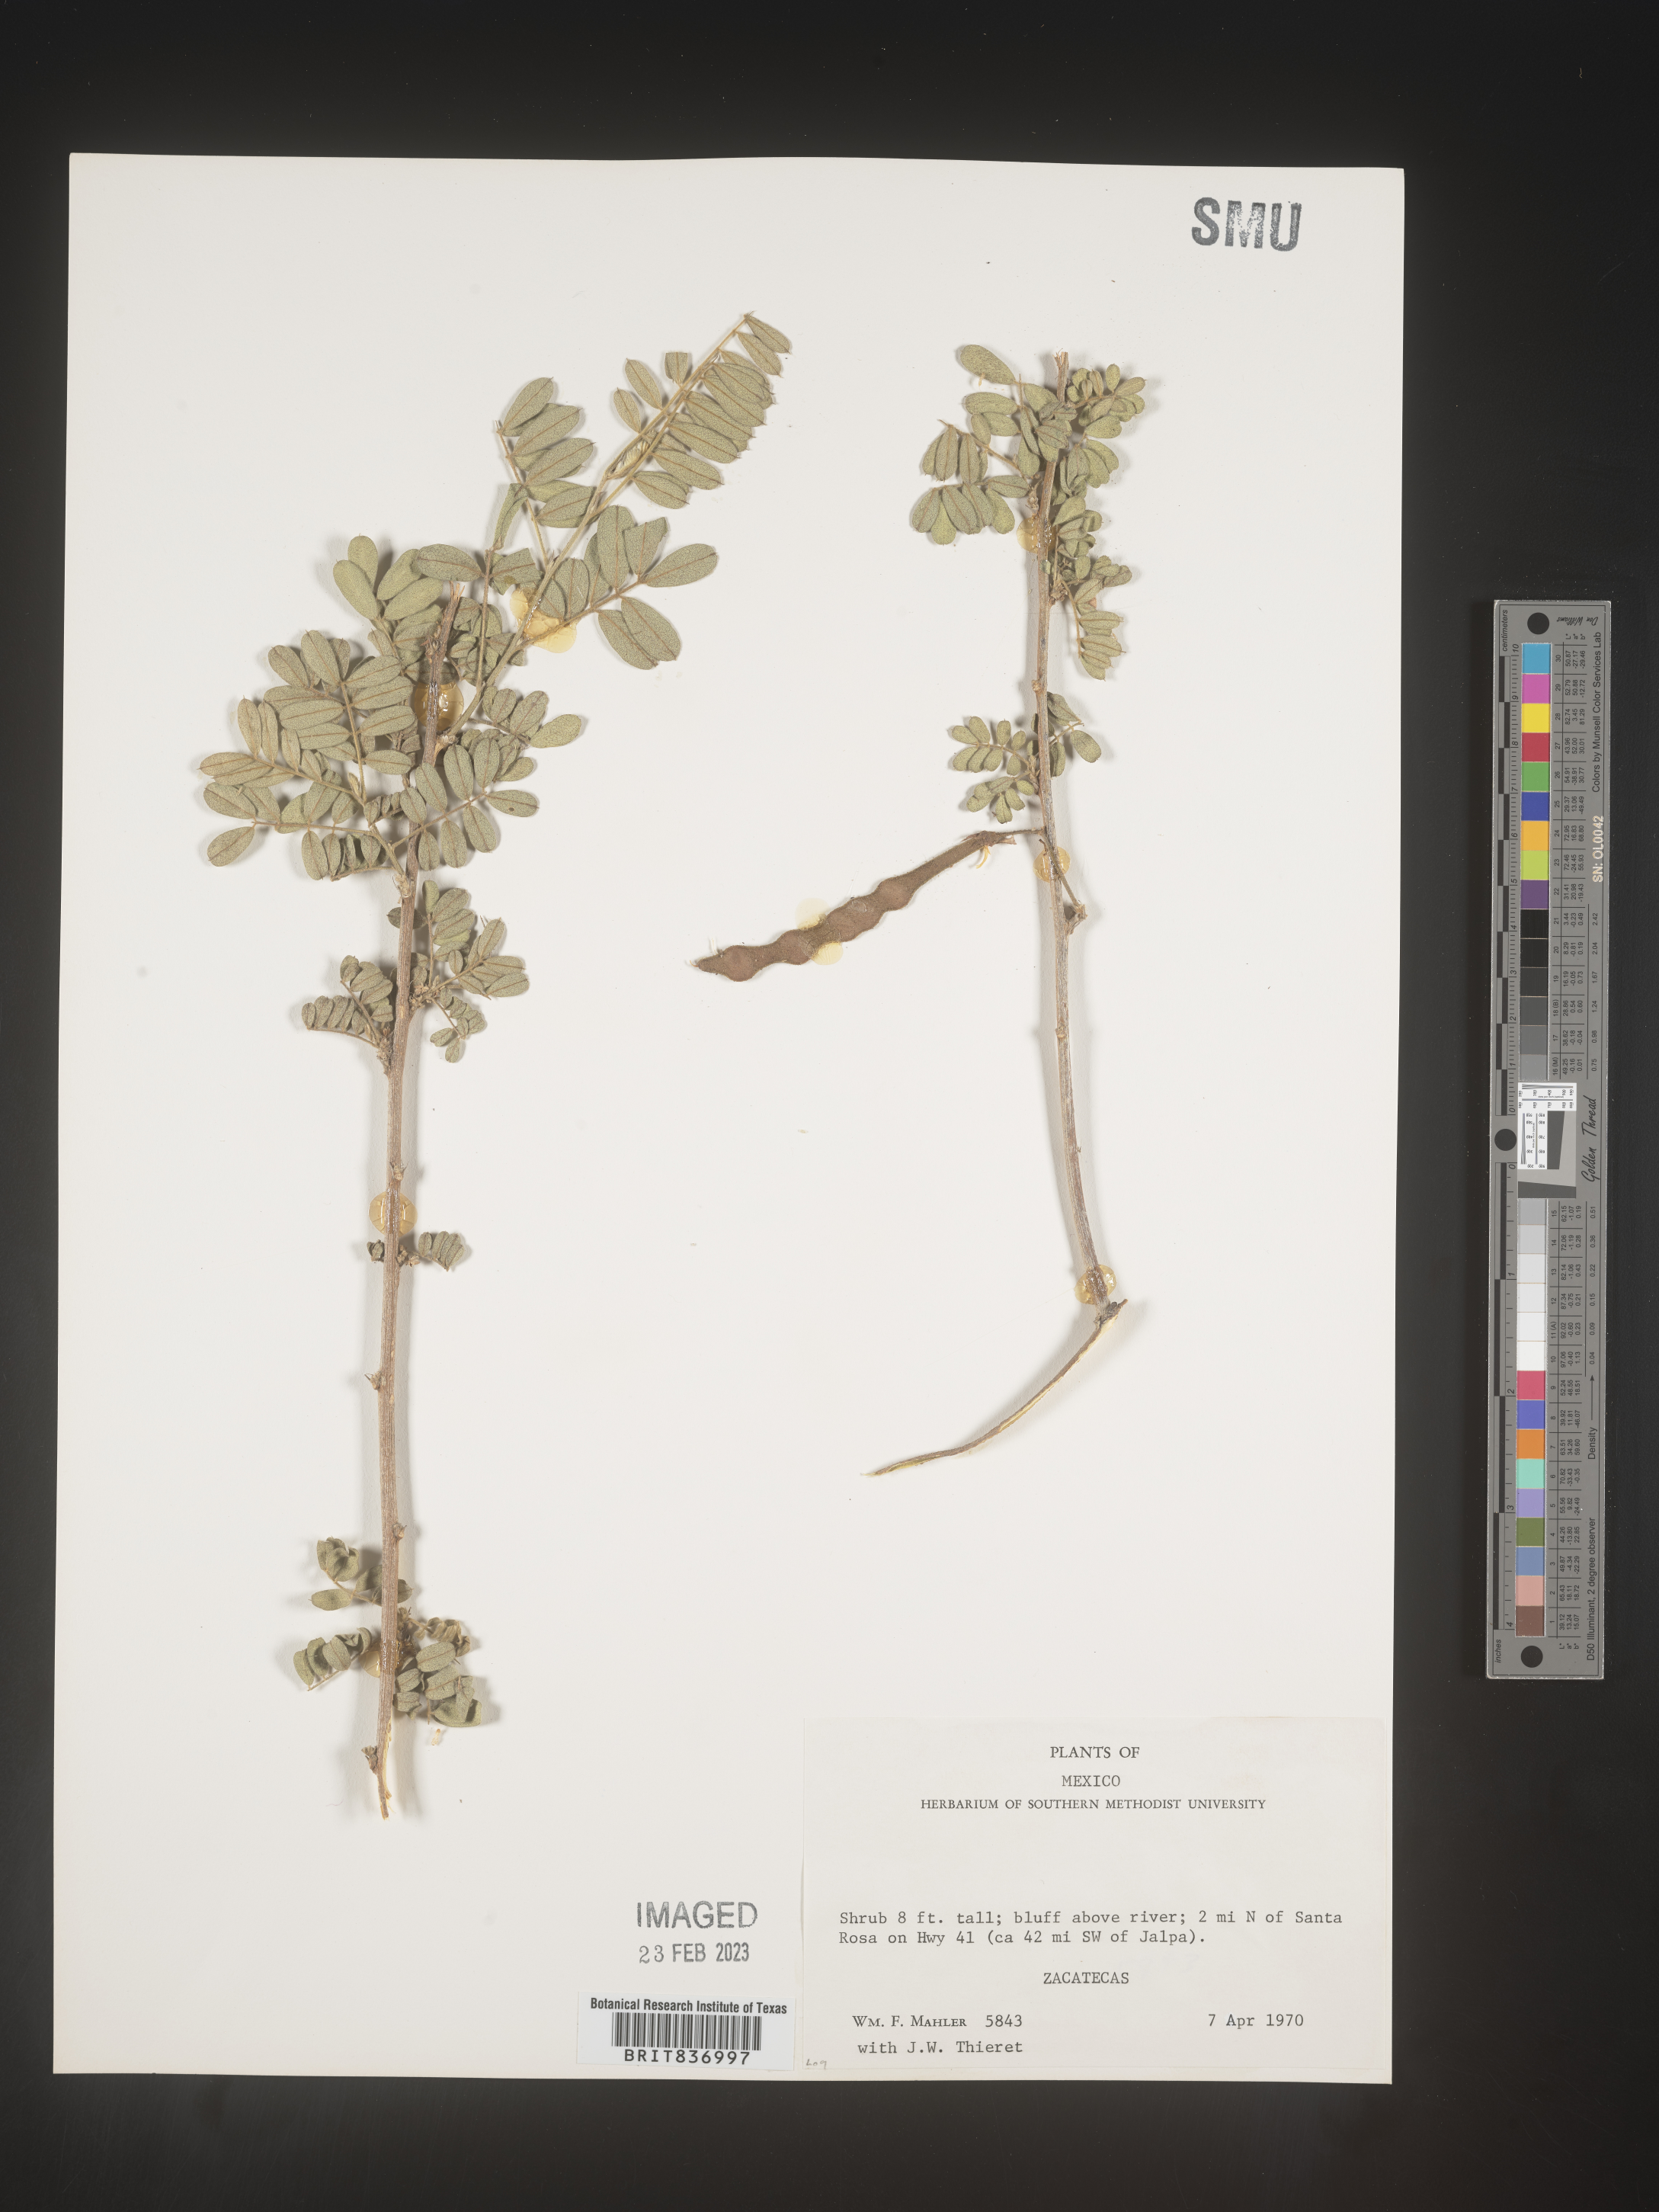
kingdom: Plantae
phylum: Tracheophyta
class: Magnoliopsida
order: Fabales
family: Fabaceae
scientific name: Fabaceae
